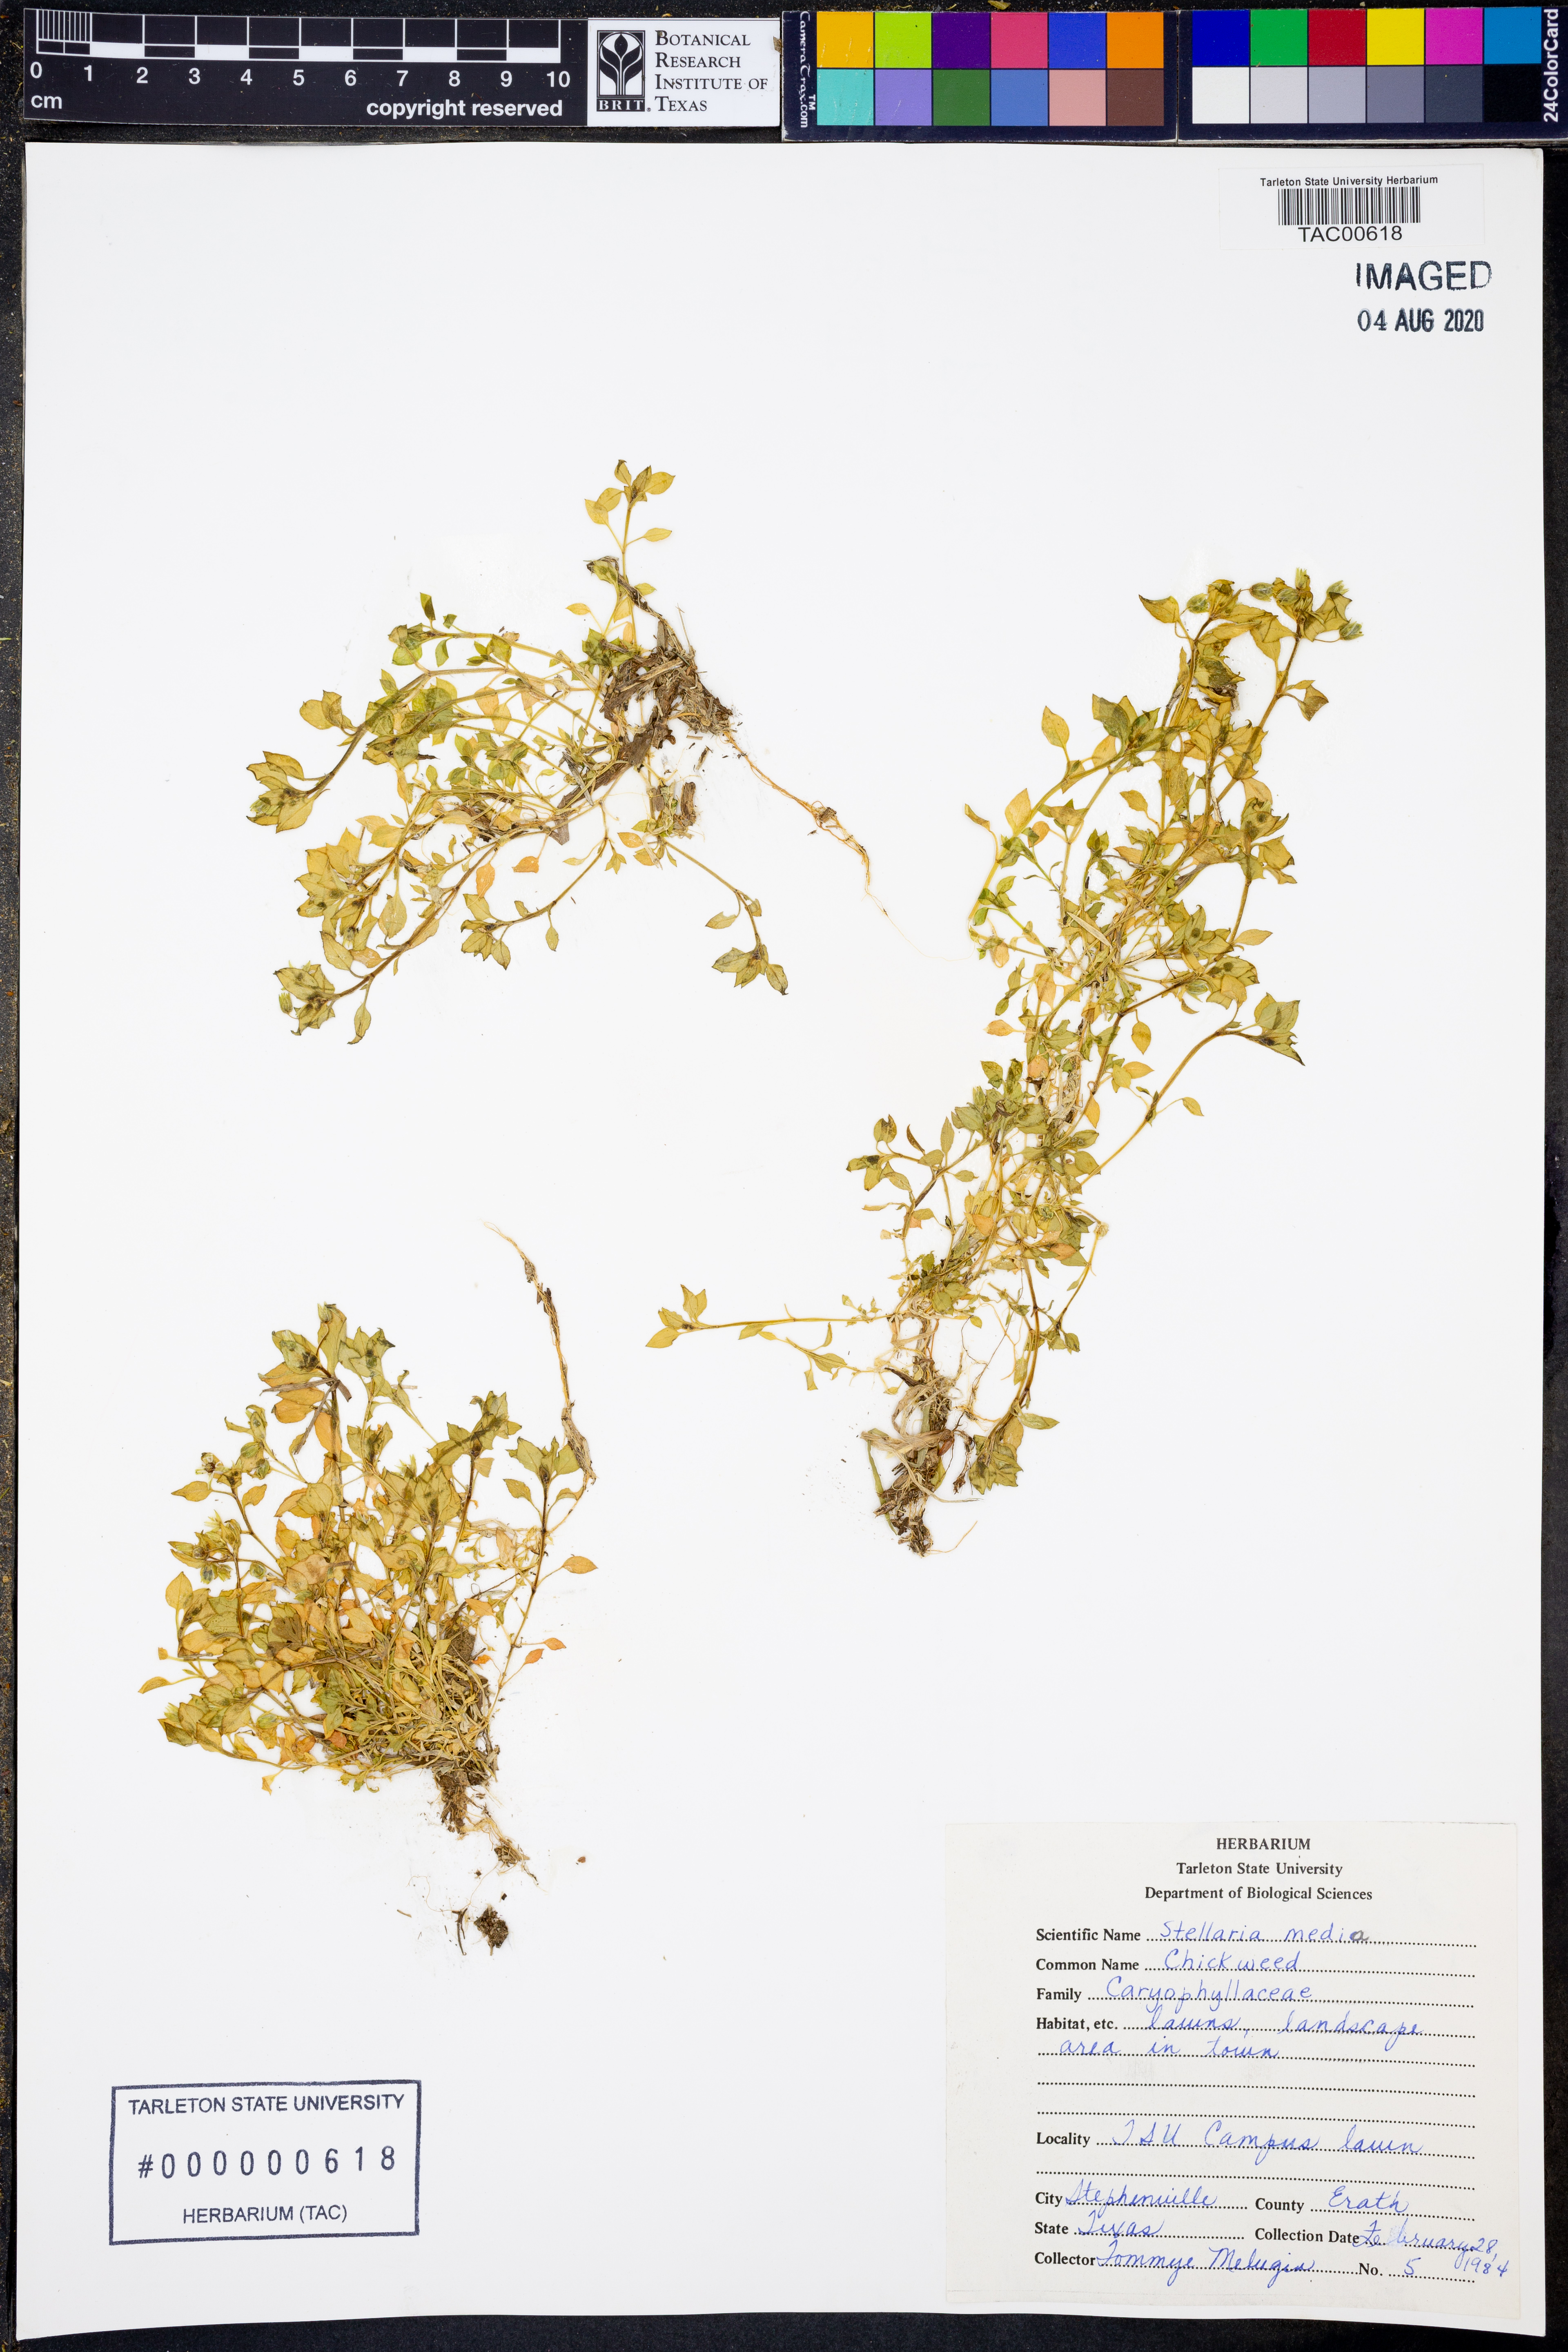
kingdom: Plantae
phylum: Tracheophyta
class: Magnoliopsida
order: Caryophyllales
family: Caryophyllaceae
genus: Stellaria
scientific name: Stellaria media
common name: Common chickweed
